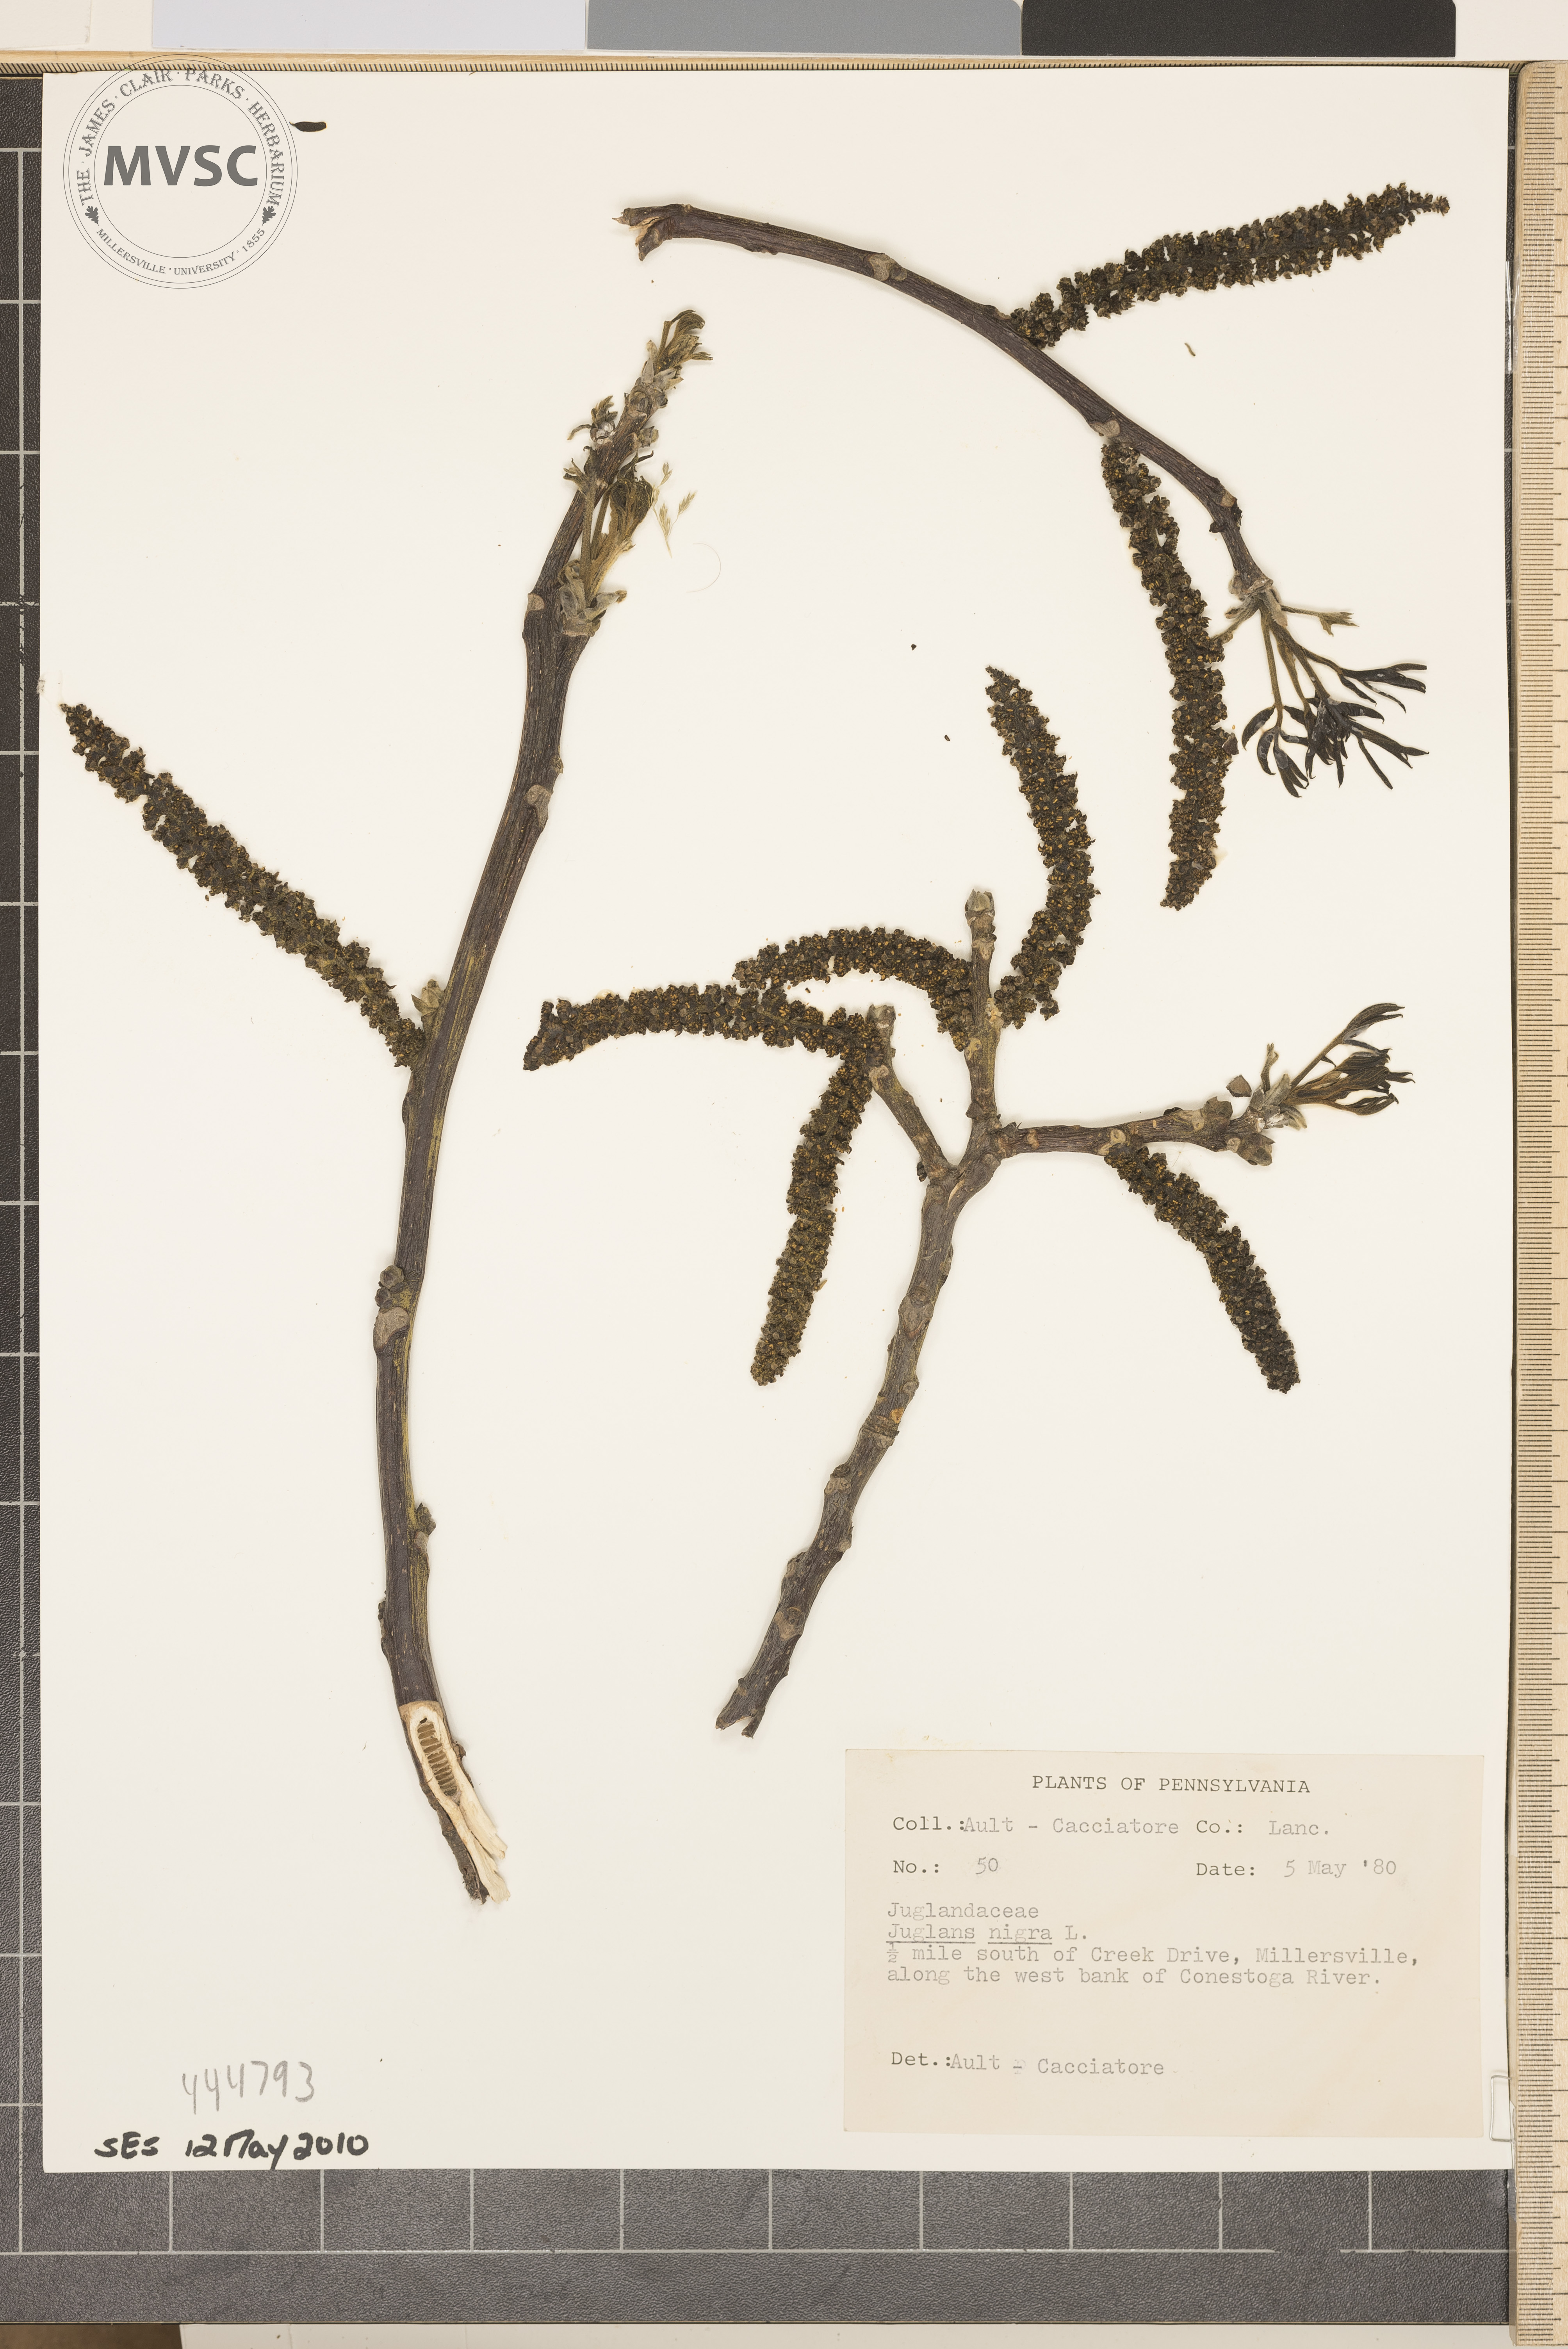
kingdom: Plantae
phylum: Tracheophyta
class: Magnoliopsida
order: Fagales
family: Juglandaceae
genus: Juglans
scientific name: Juglans nigra
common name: Black walnut
